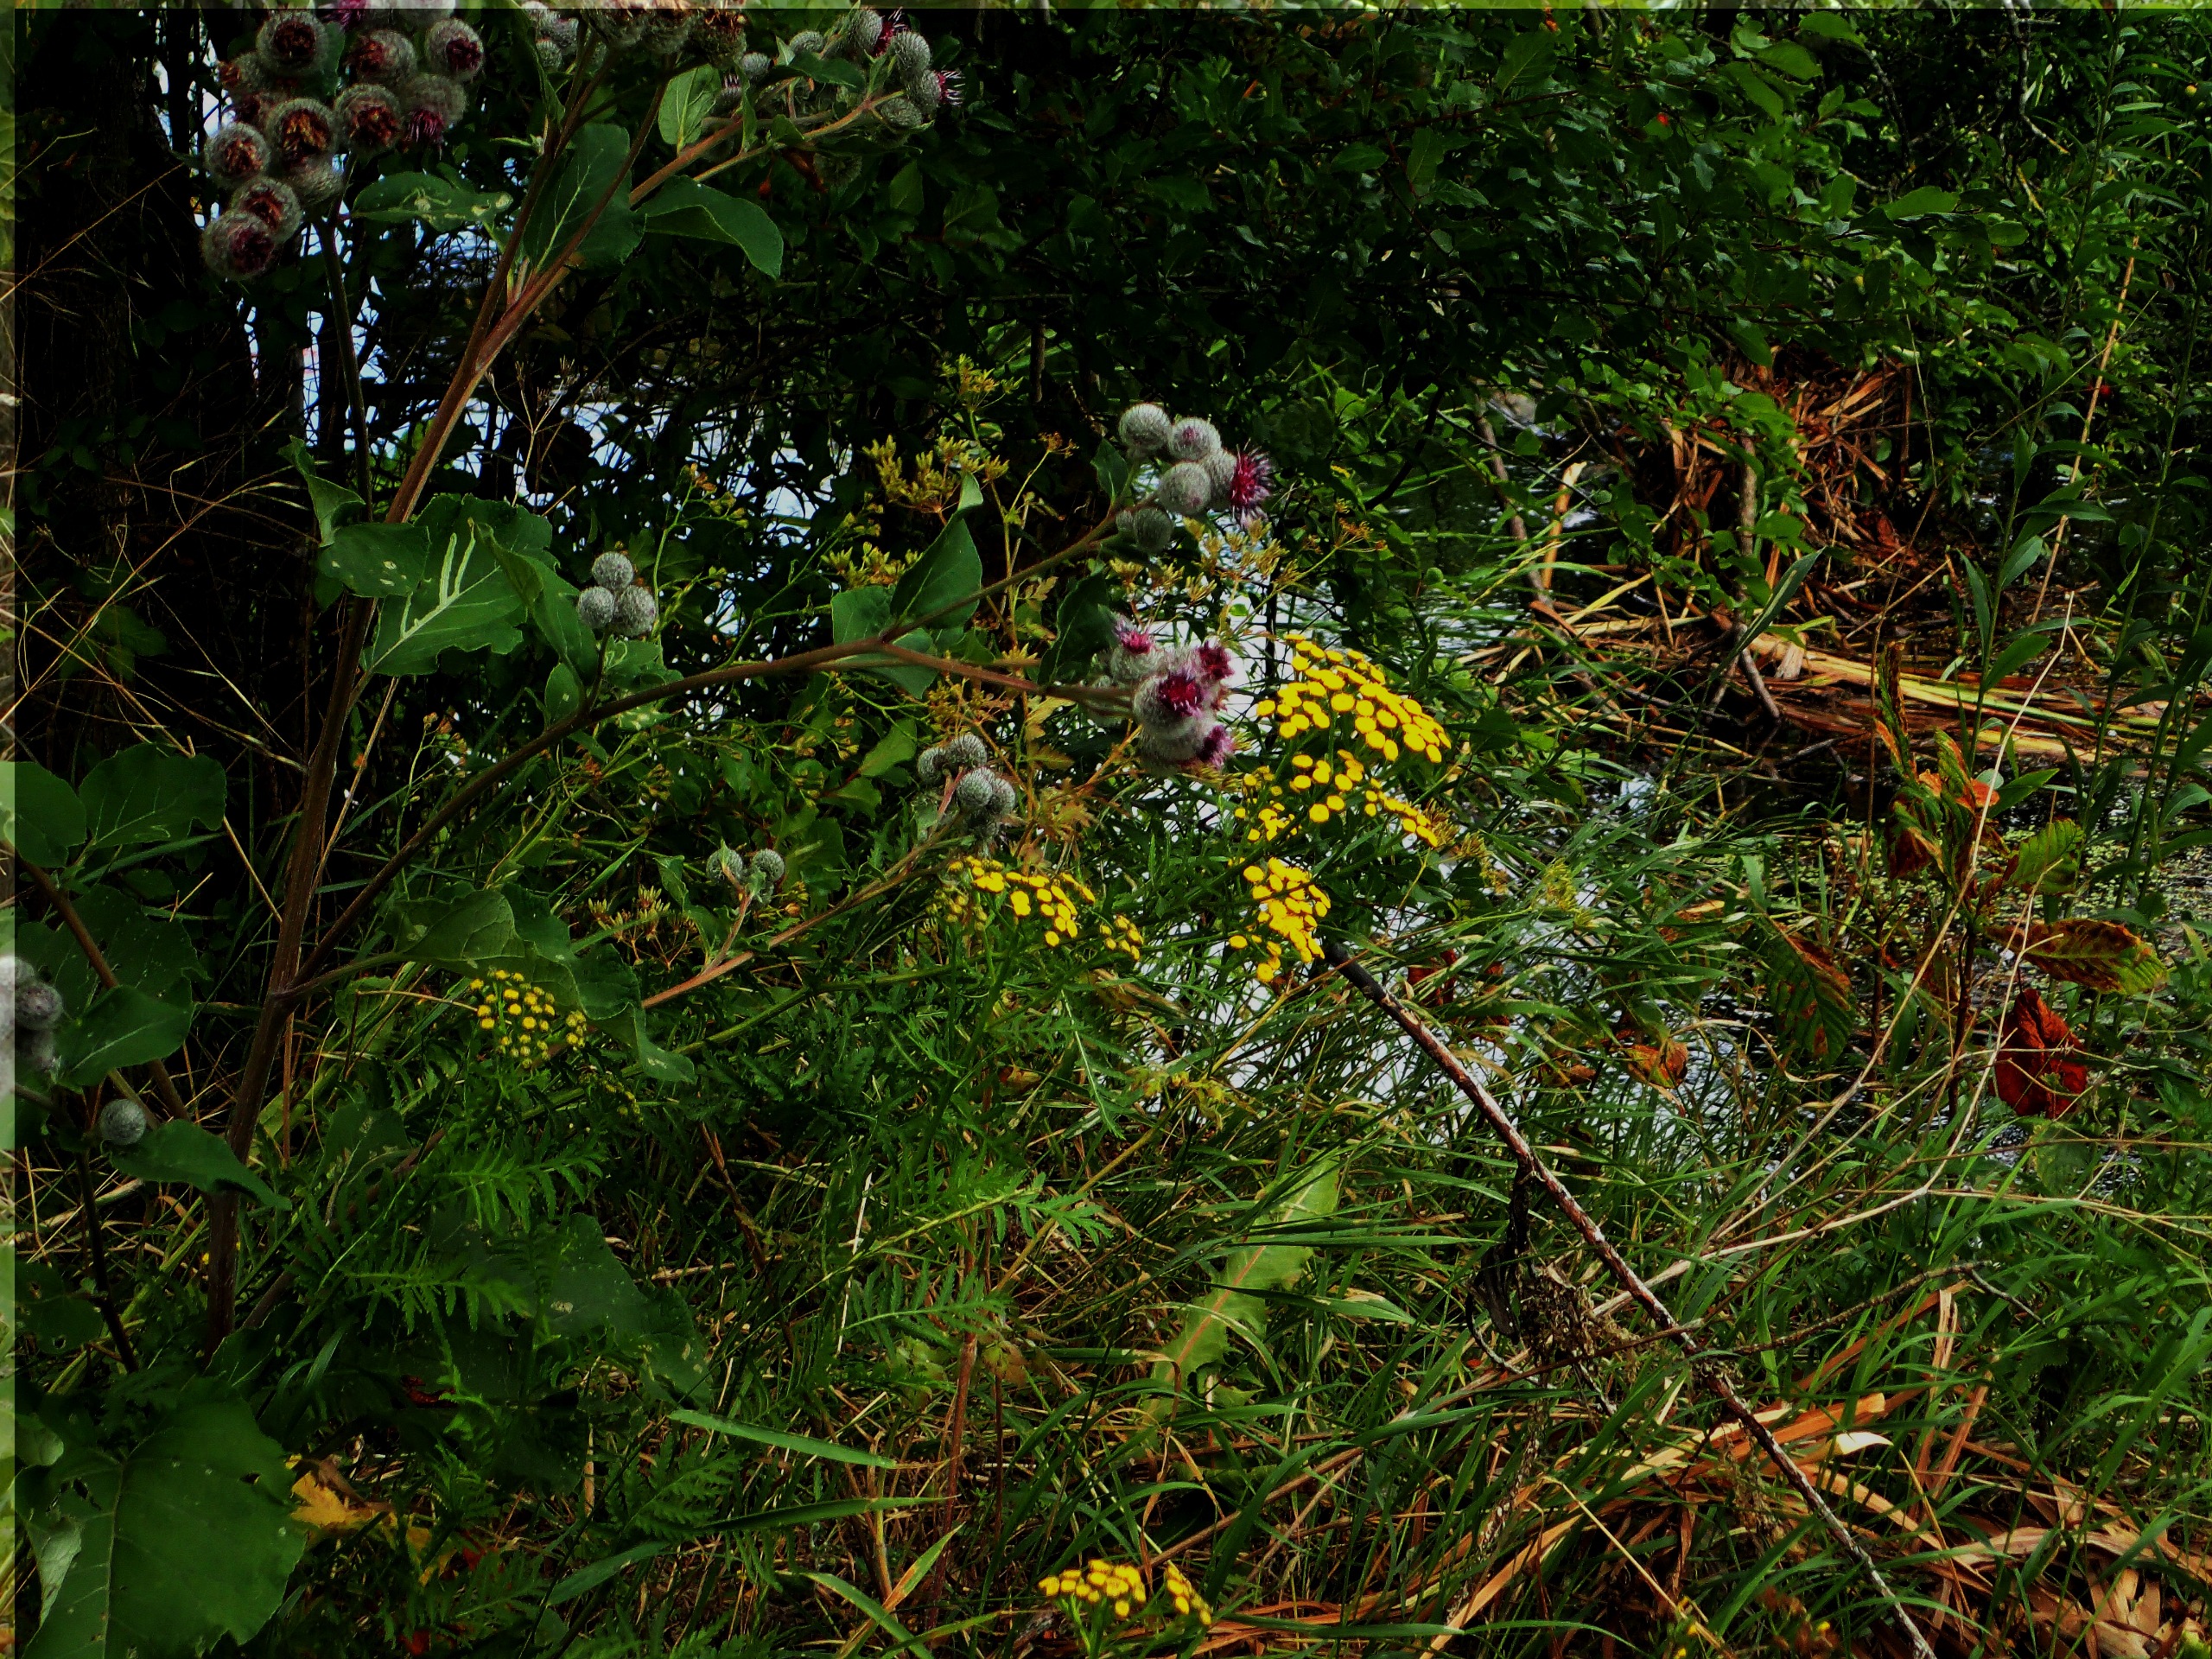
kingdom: Plantae
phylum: Tracheophyta
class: Magnoliopsida
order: Asterales
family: Asteraceae
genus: Tanacetum
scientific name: Tanacetum vulgare
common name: Rejnfan
